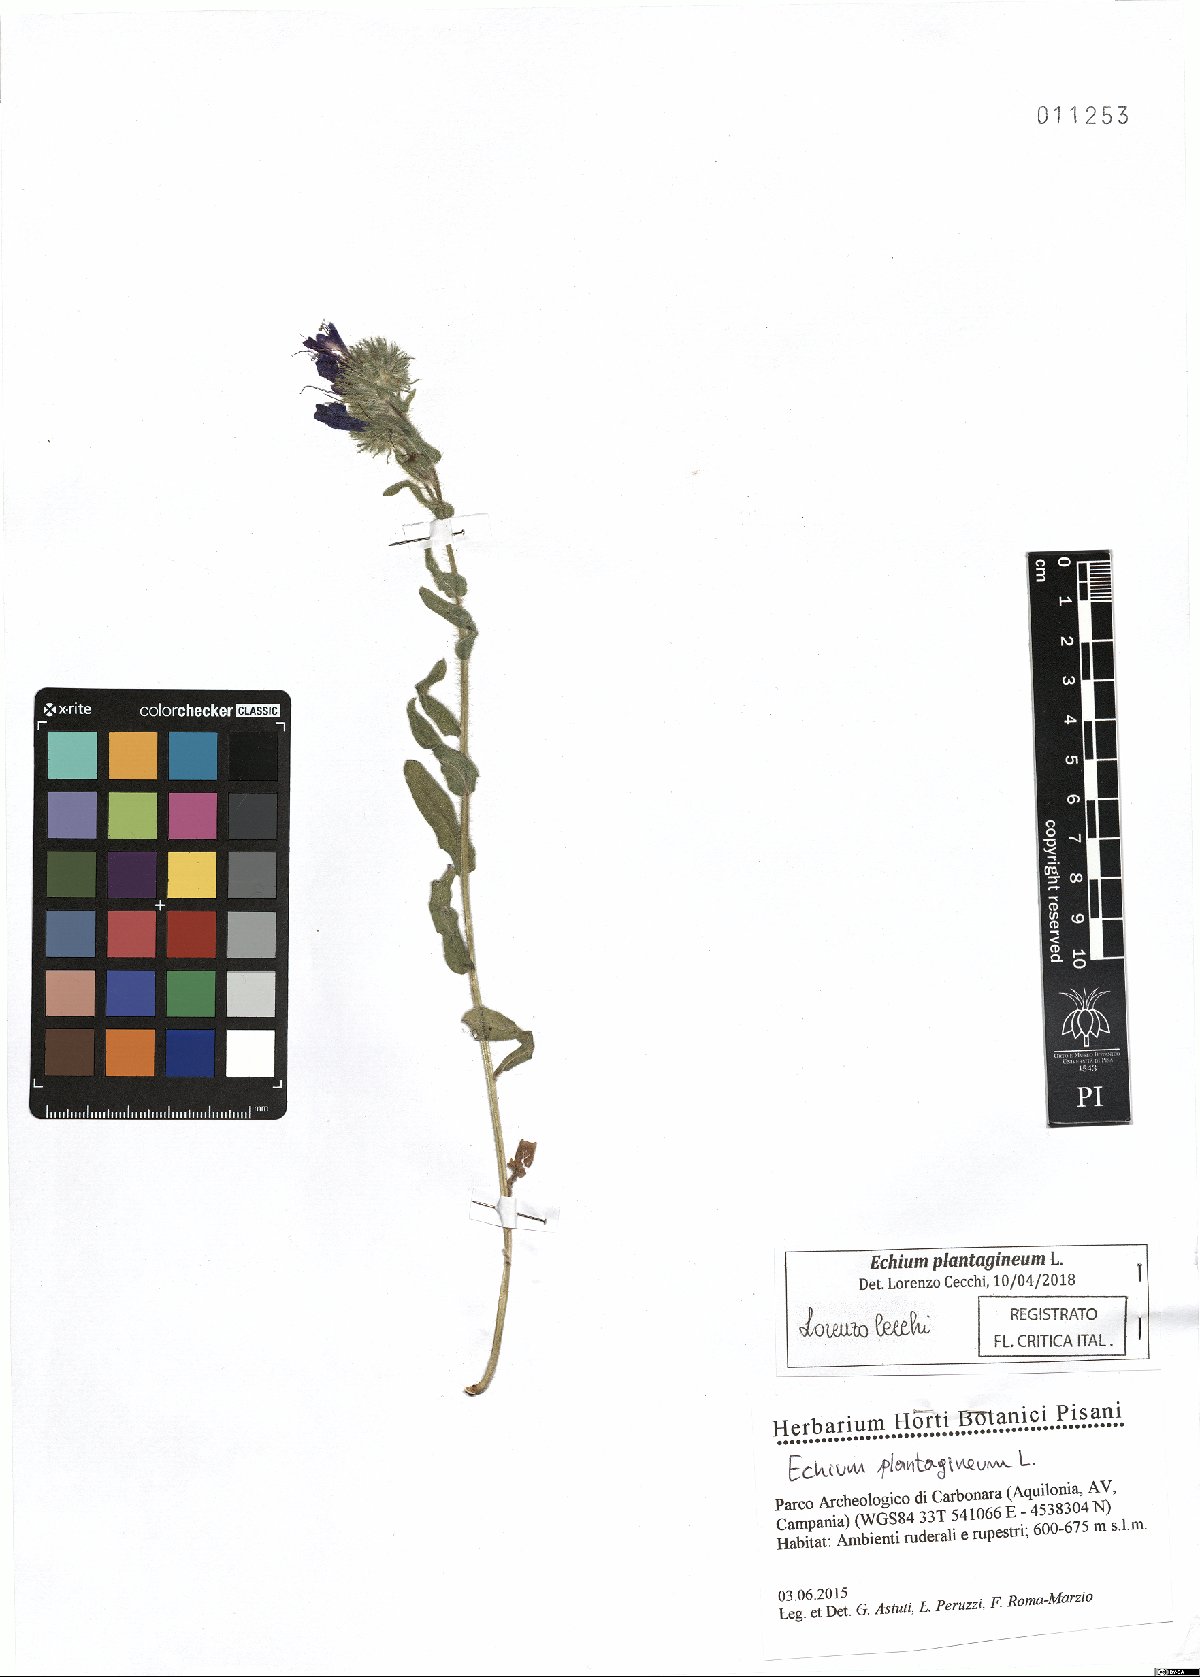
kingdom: Plantae
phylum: Tracheophyta
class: Magnoliopsida
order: Boraginales
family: Boraginaceae
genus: Echium
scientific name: Echium plantagineum
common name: Purple viper's-bugloss
